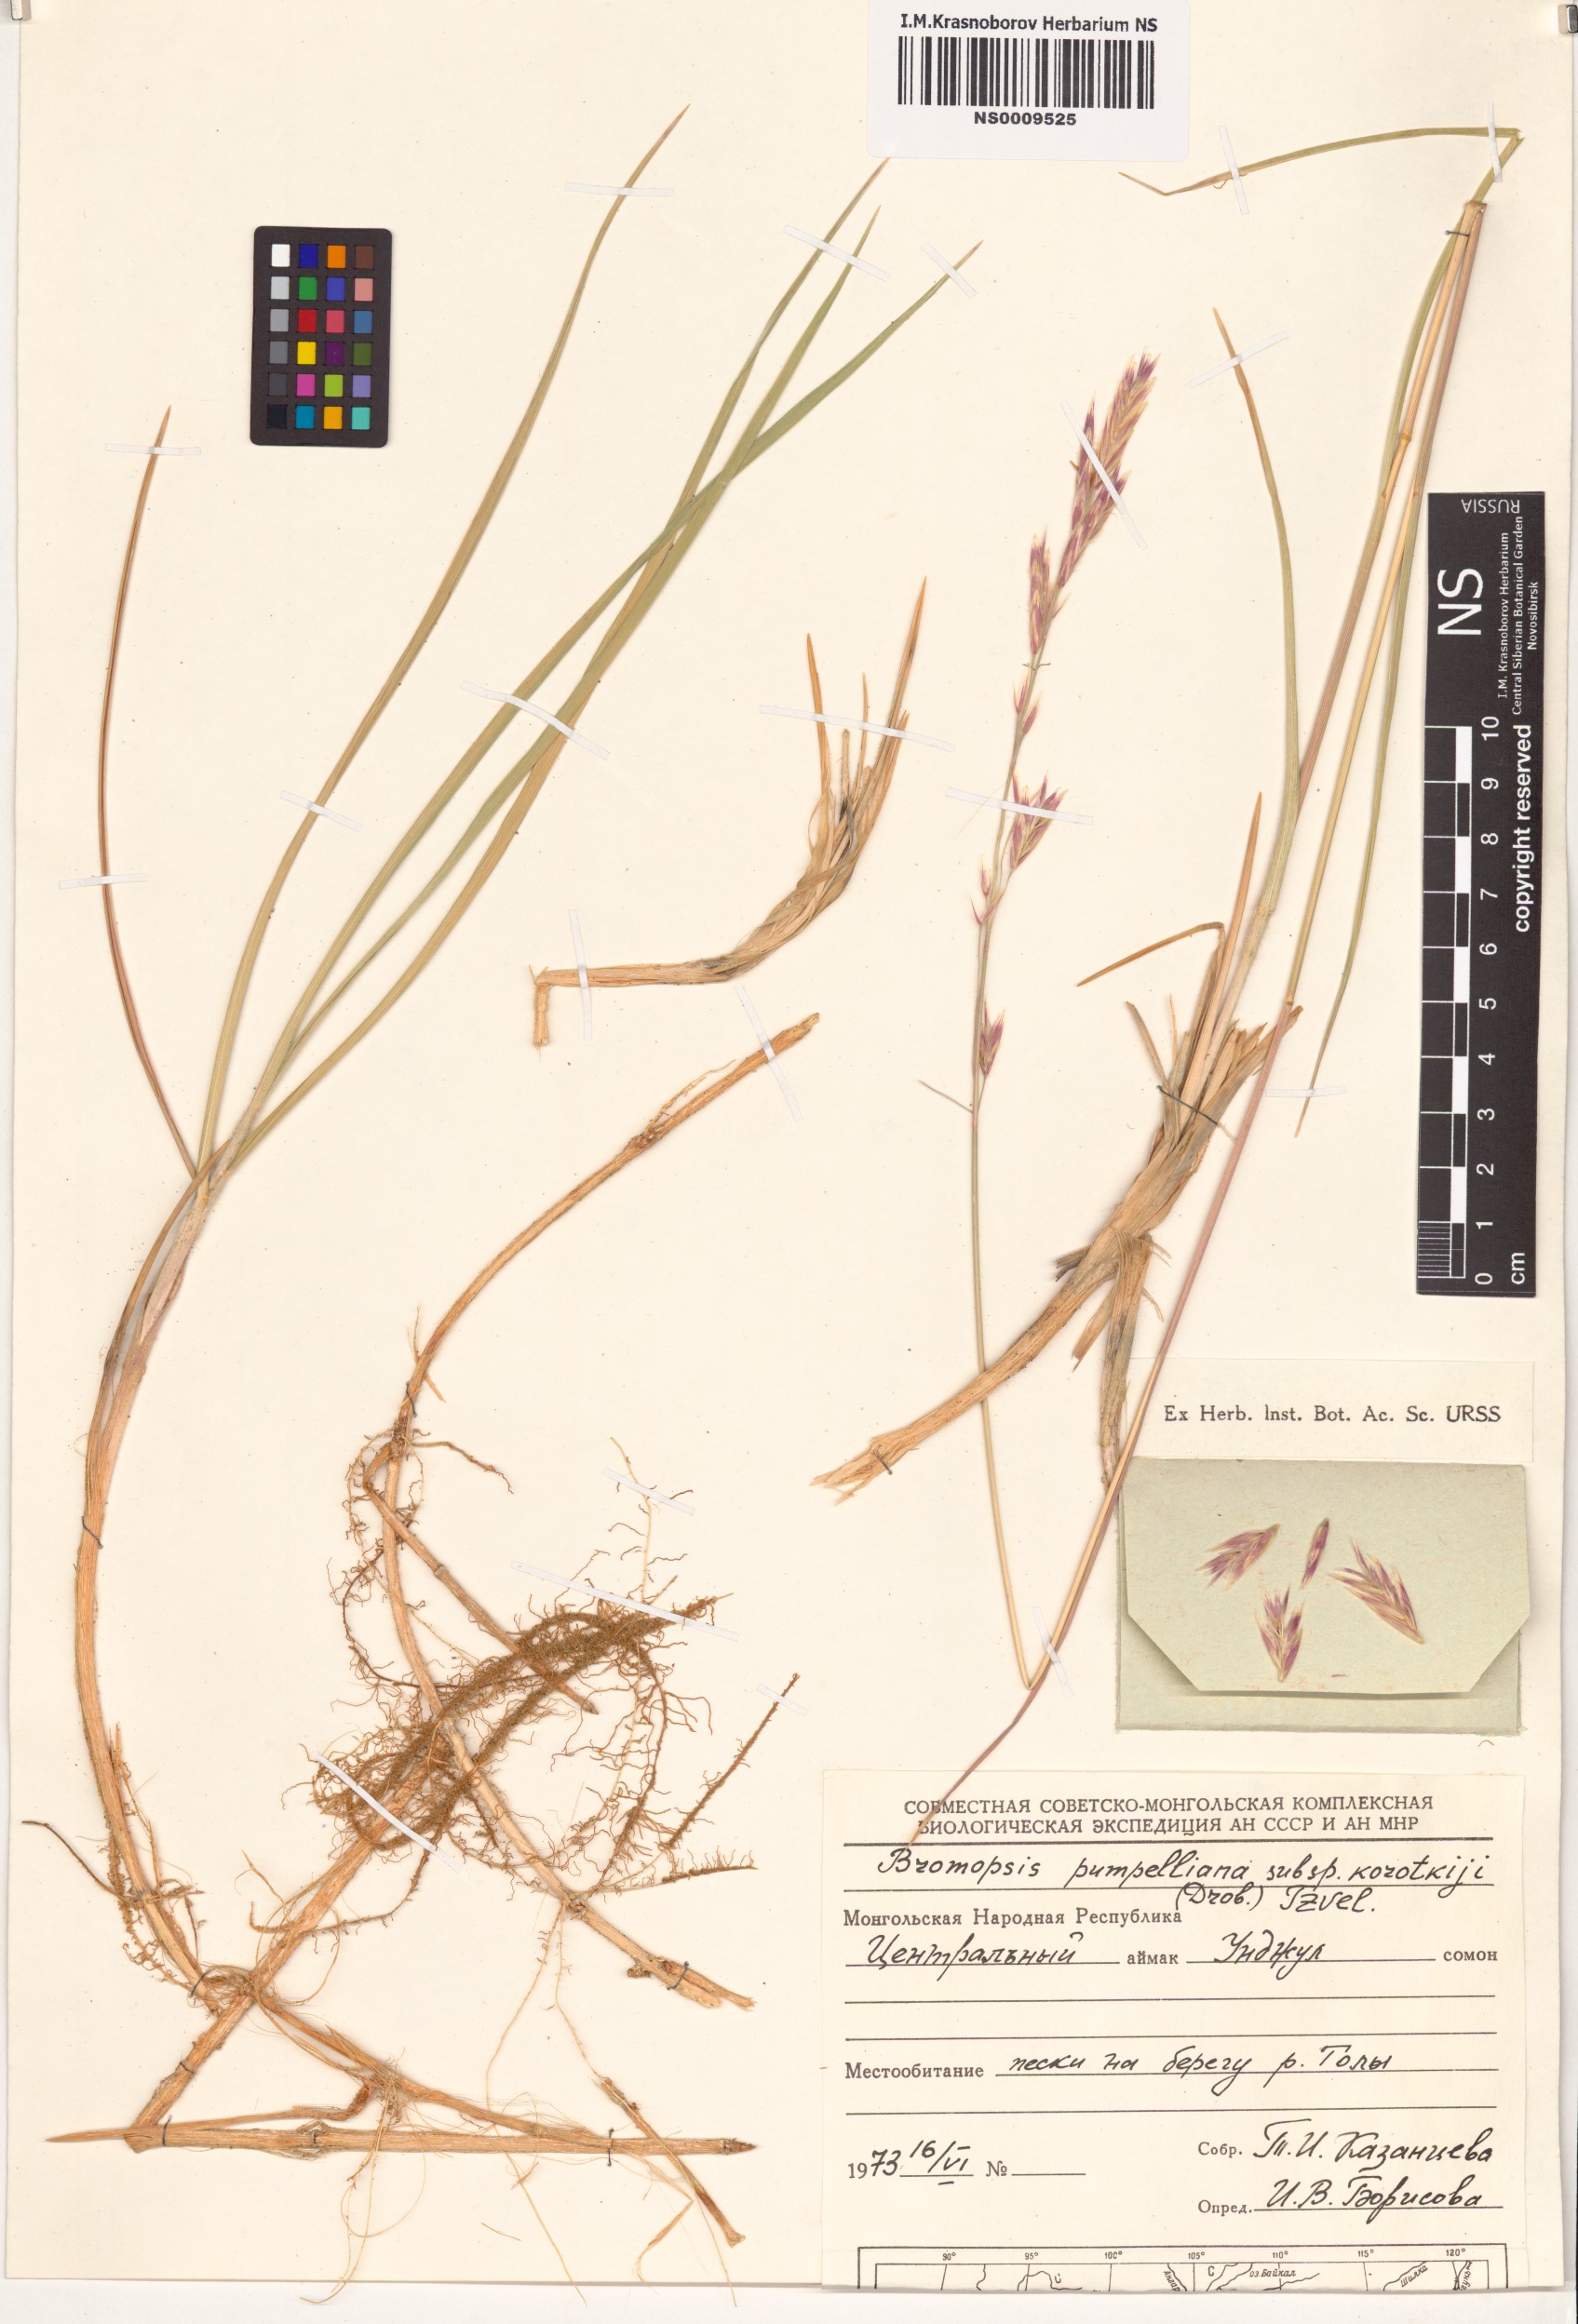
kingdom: Plantae
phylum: Tracheophyta
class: Liliopsida
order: Poales
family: Poaceae
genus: Bromus
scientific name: Bromus pumpellianus
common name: Pumpelly's brome
